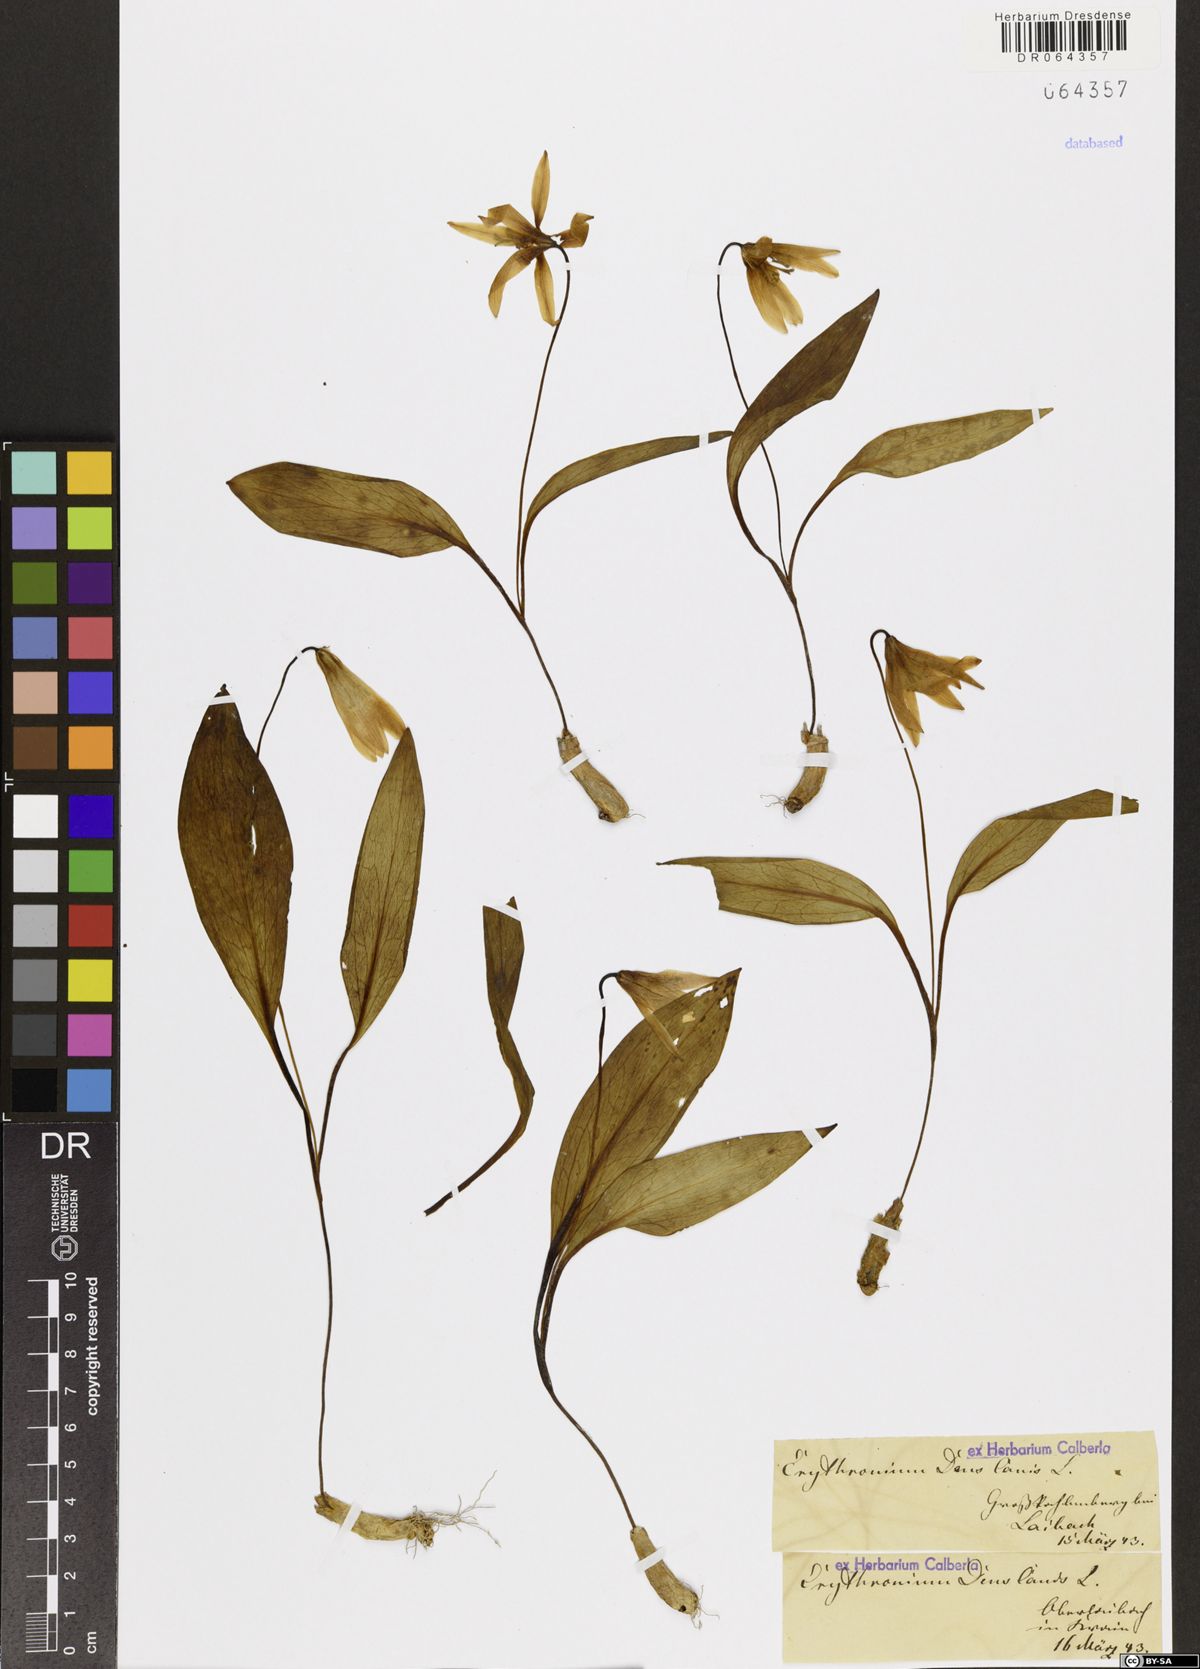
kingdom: Plantae
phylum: Tracheophyta
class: Liliopsida
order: Liliales
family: Liliaceae
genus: Erythronium
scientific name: Erythronium dens-canis
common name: Dog's-tooth-violet
